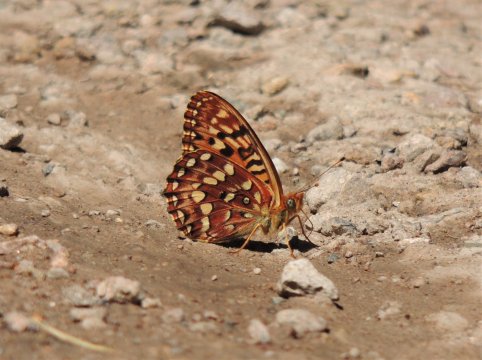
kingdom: Animalia
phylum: Arthropoda
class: Insecta
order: Lepidoptera
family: Nymphalidae
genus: Speyeria
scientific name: Speyeria hydaspe
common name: Hydaspe Fritillary
